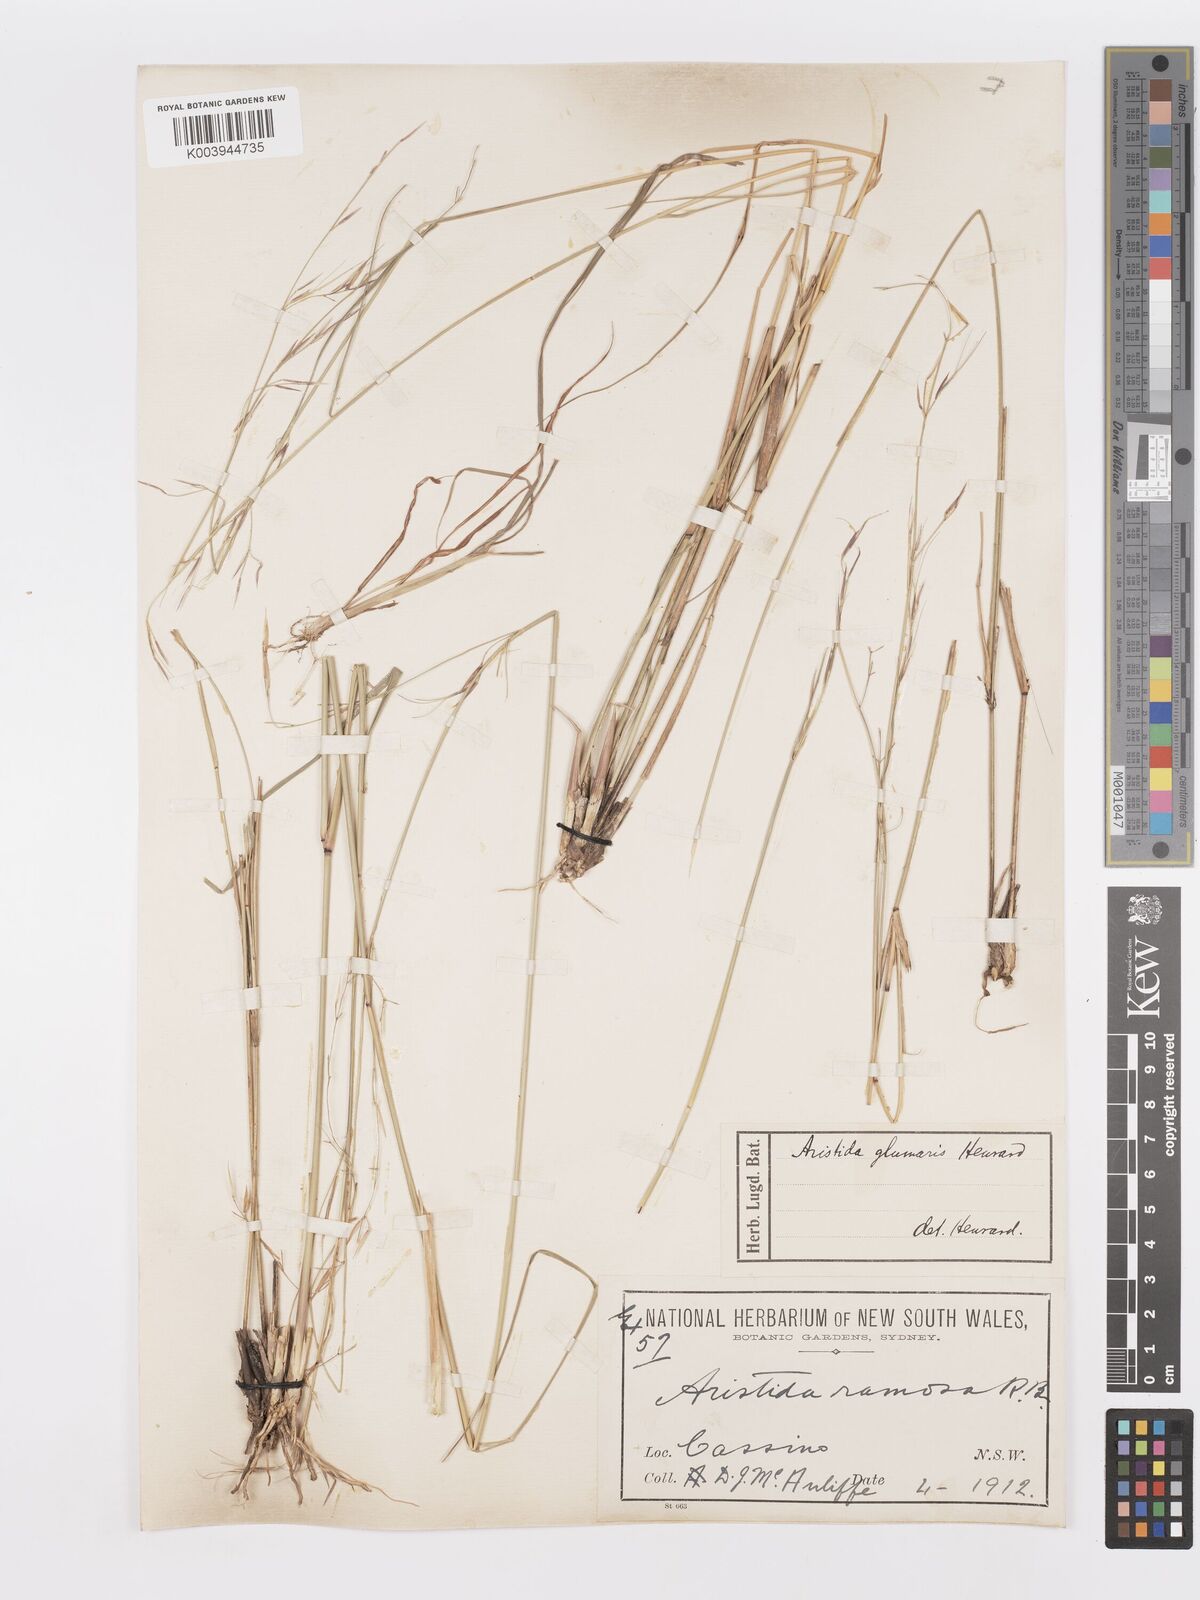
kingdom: Plantae
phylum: Tracheophyta
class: Liliopsida
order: Poales
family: Poaceae
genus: Aristida
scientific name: Aristida calycina
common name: Dark wire grass
